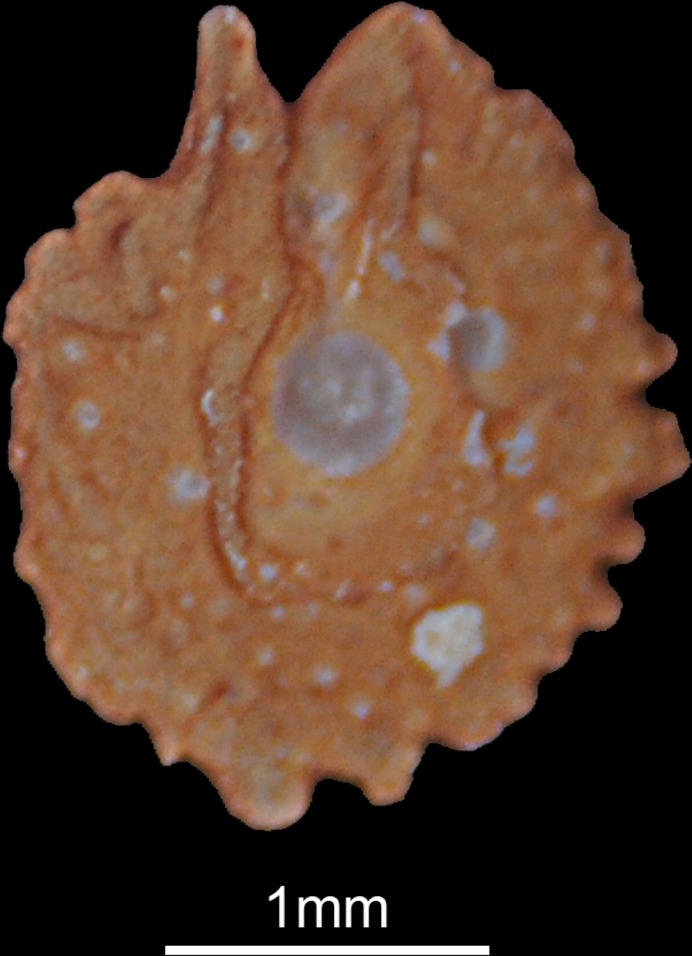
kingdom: Animalia
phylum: Chordata
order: Cypriniformes
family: Cyprinidae
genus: Acanthobrama
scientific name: Acanthobrama marmid
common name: Mesopotamian bream
